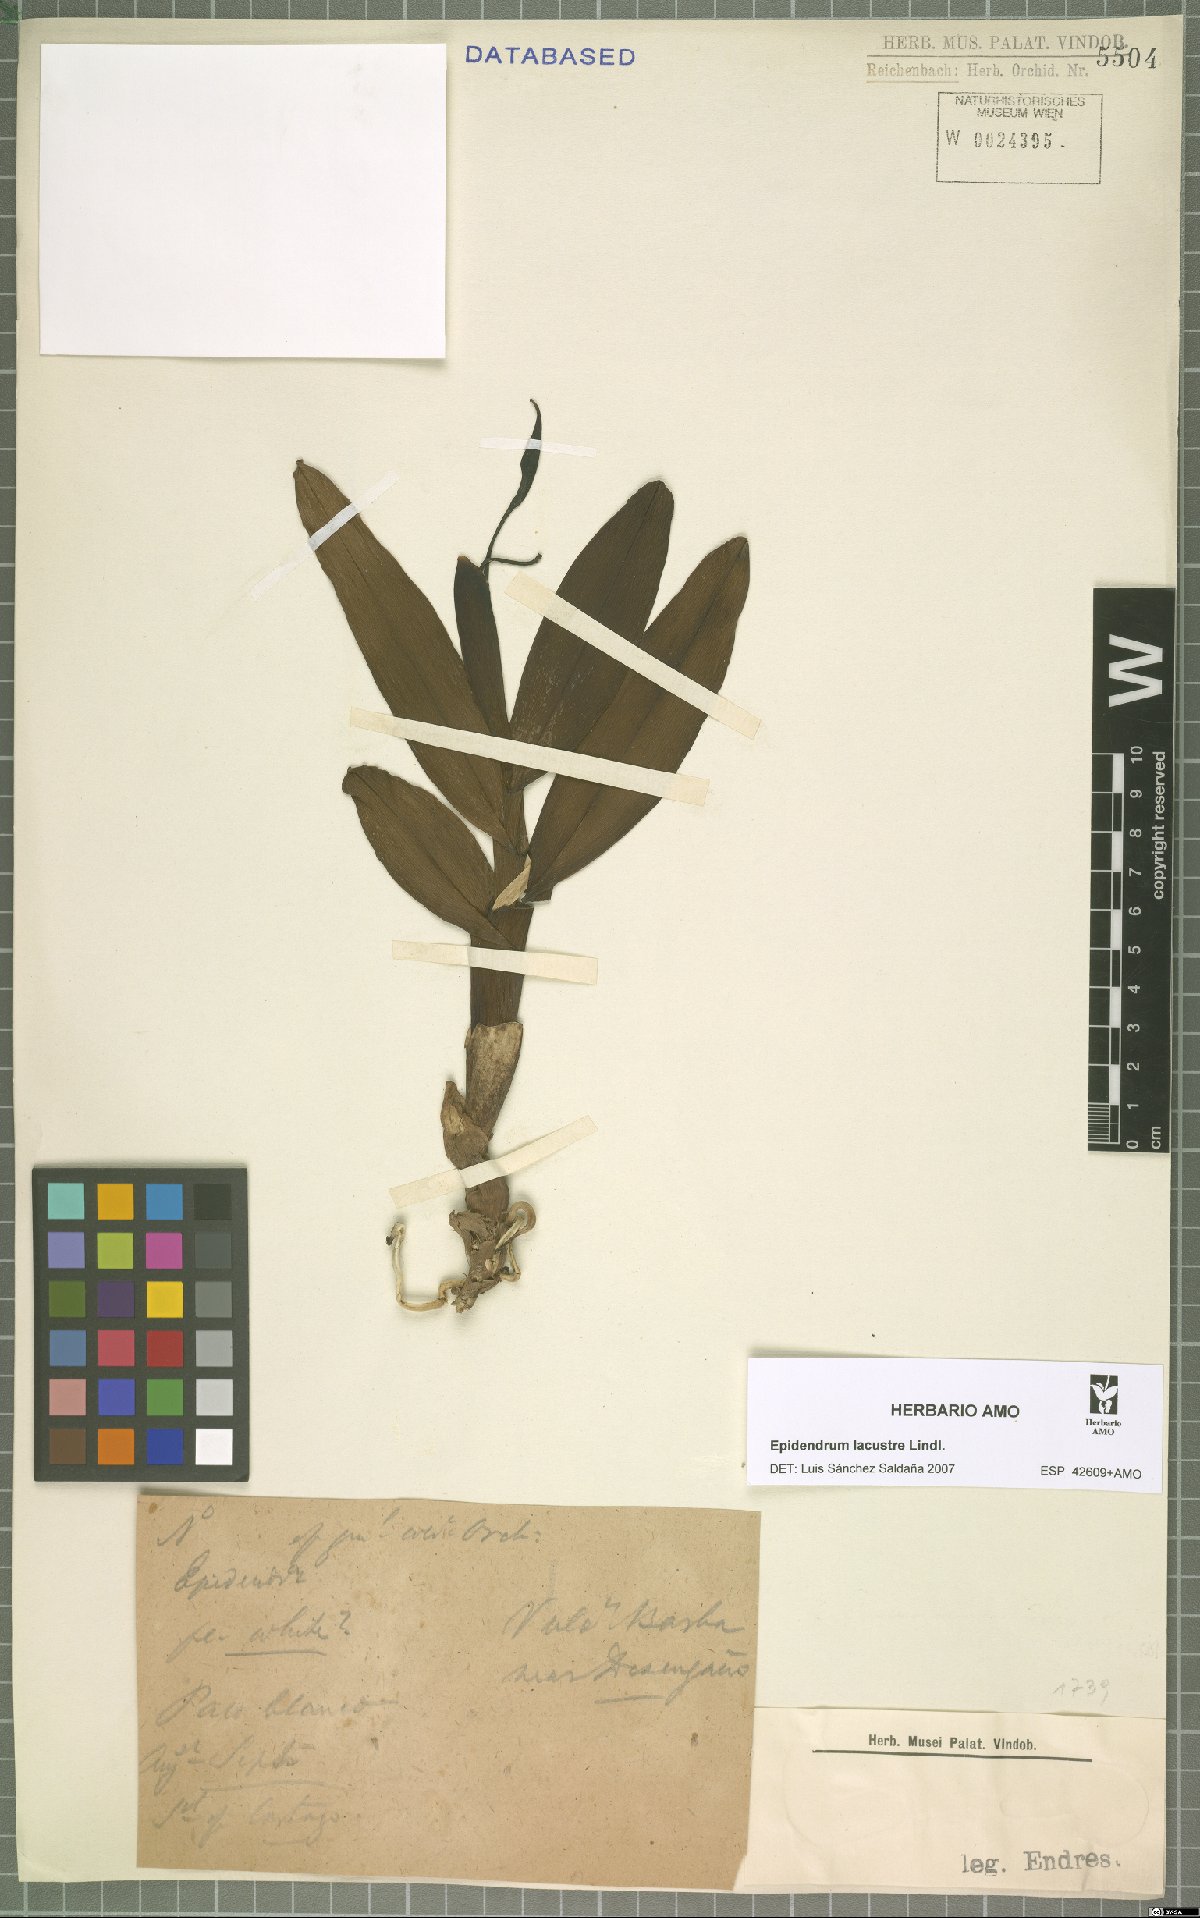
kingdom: Plantae
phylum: Tracheophyta
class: Liliopsida
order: Asparagales
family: Orchidaceae
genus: Epidendrum
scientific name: Epidendrum lacustre
